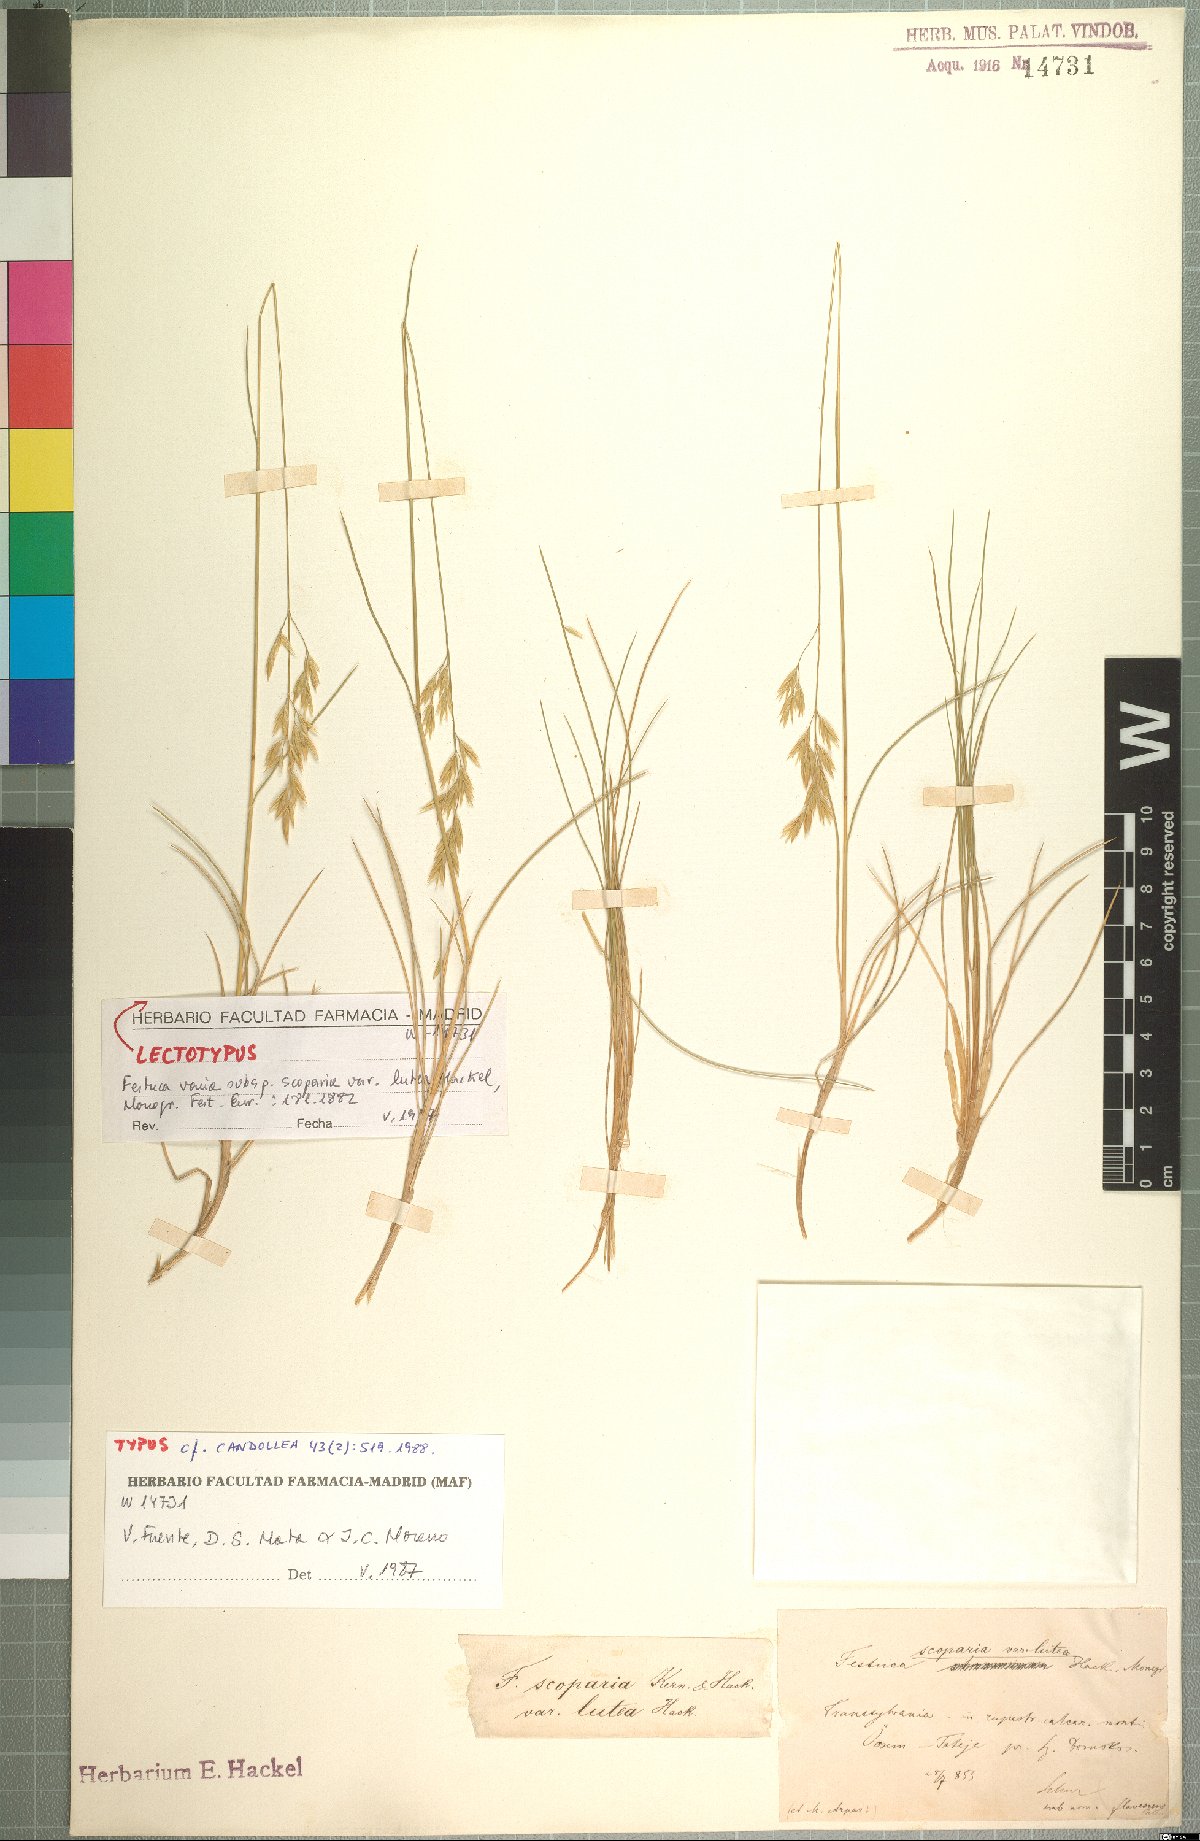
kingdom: Plantae
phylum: Tracheophyta
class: Liliopsida
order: Poales
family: Poaceae
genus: Festuca
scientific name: Festuca gautieri
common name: Spiky fescue
